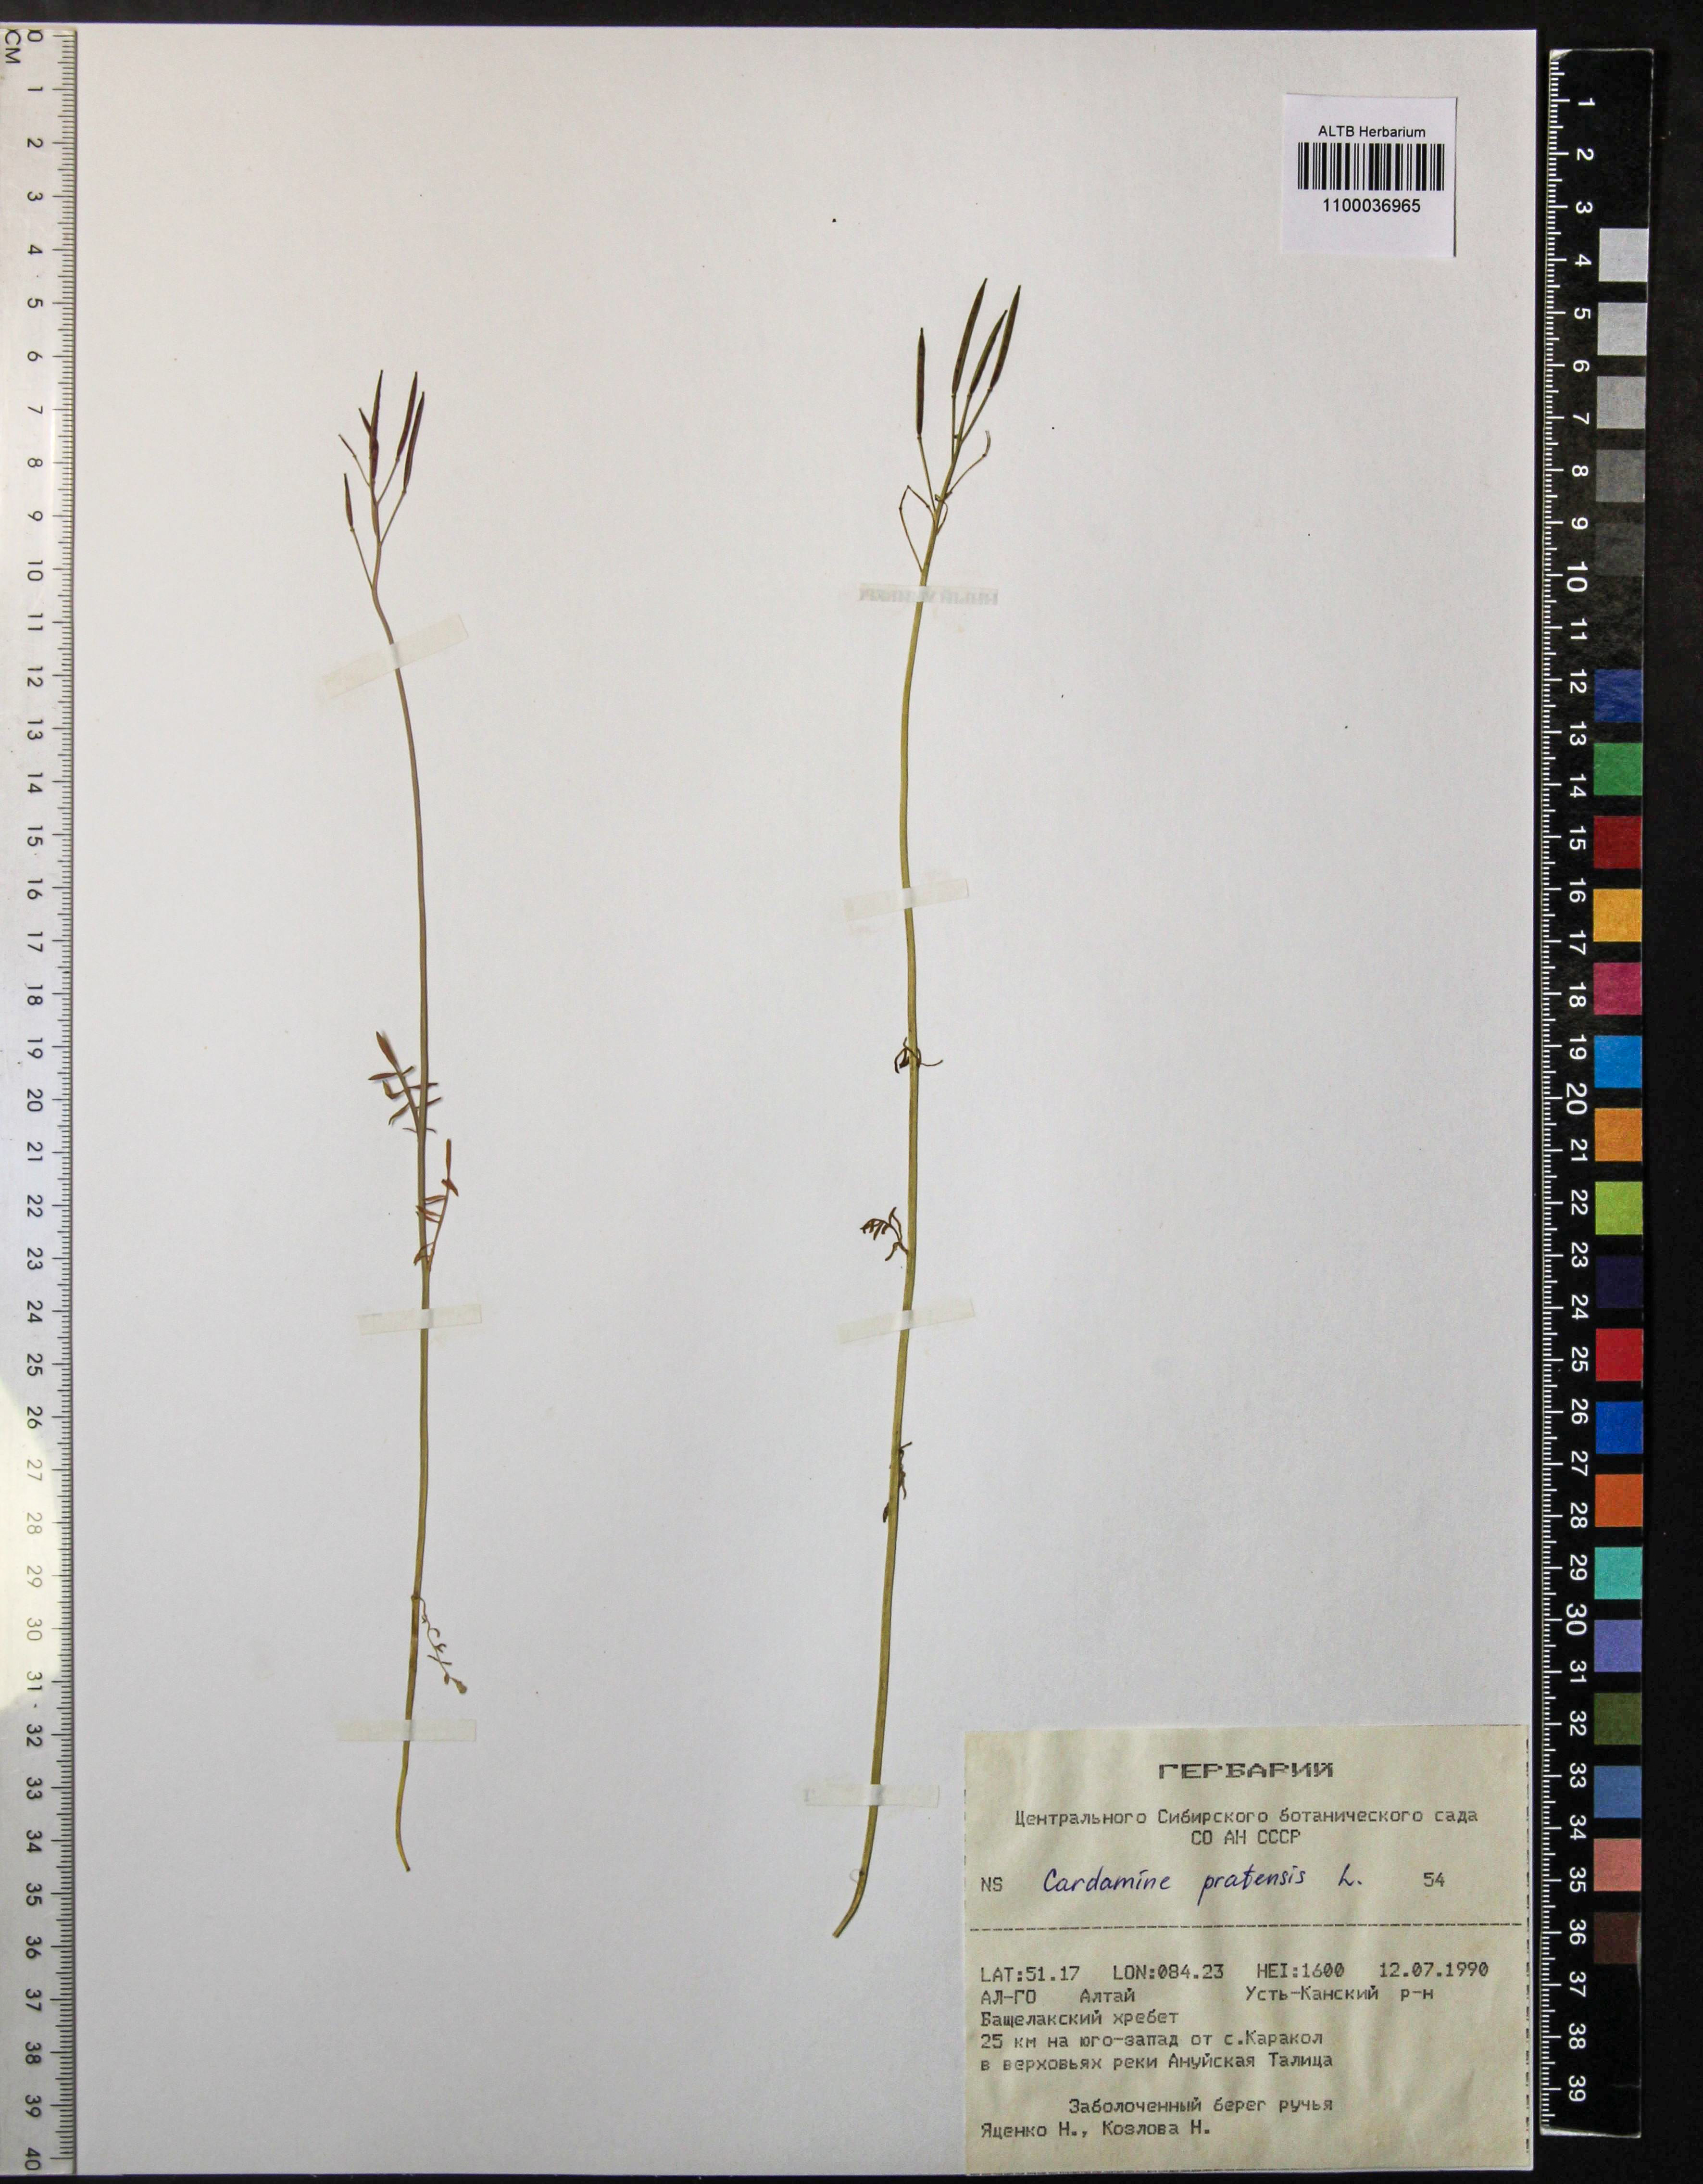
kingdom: Plantae
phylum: Tracheophyta
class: Magnoliopsida
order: Brassicales
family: Brassicaceae
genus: Cardamine
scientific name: Cardamine pratensis
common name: Cuckoo flower
